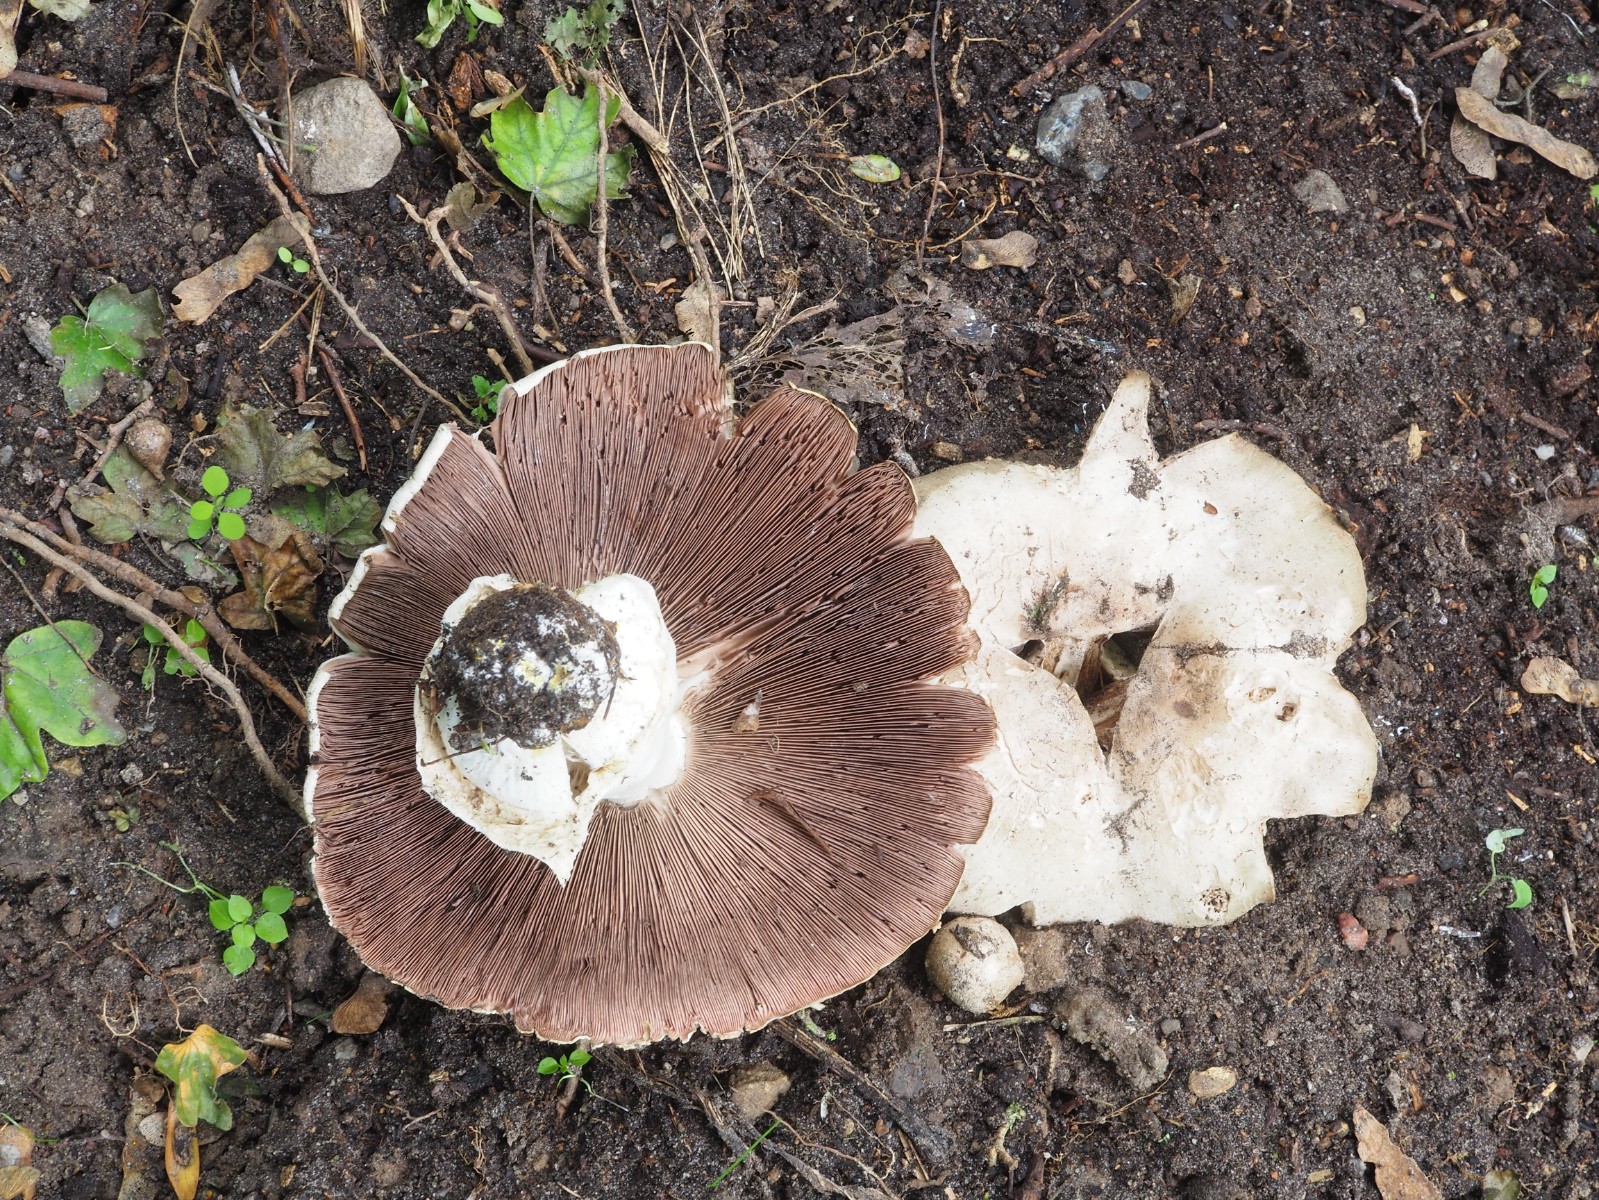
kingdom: Fungi
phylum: Basidiomycota
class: Agaricomycetes
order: Agaricales
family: Agaricaceae
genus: Agaricus
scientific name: Agaricus
